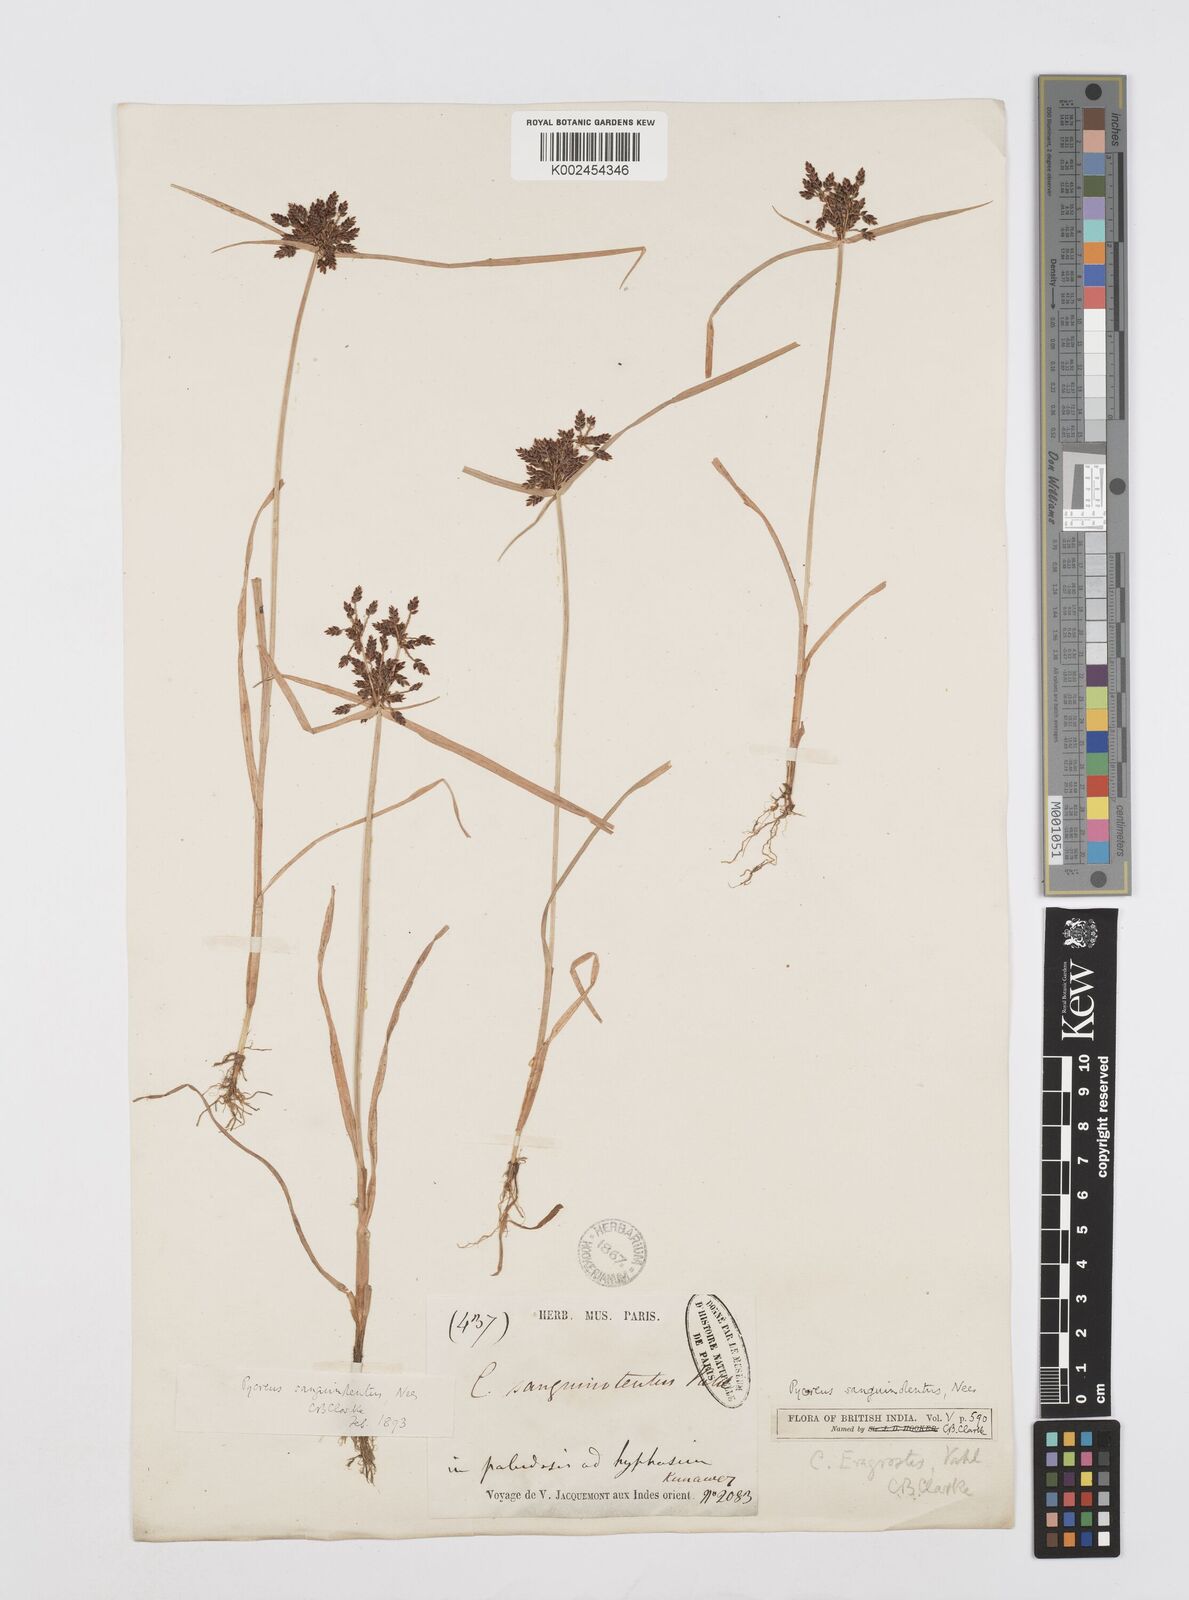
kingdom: Plantae
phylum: Tracheophyta
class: Liliopsida
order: Poales
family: Cyperaceae
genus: Cyperus
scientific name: Cyperus sanguinolentus
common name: Purpleglume flatsedge
